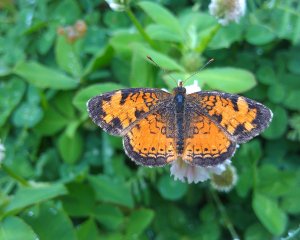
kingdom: Animalia
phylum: Arthropoda
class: Insecta
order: Lepidoptera
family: Nymphalidae
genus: Phyciodes
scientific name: Phyciodes tharos
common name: Northern Crescent
